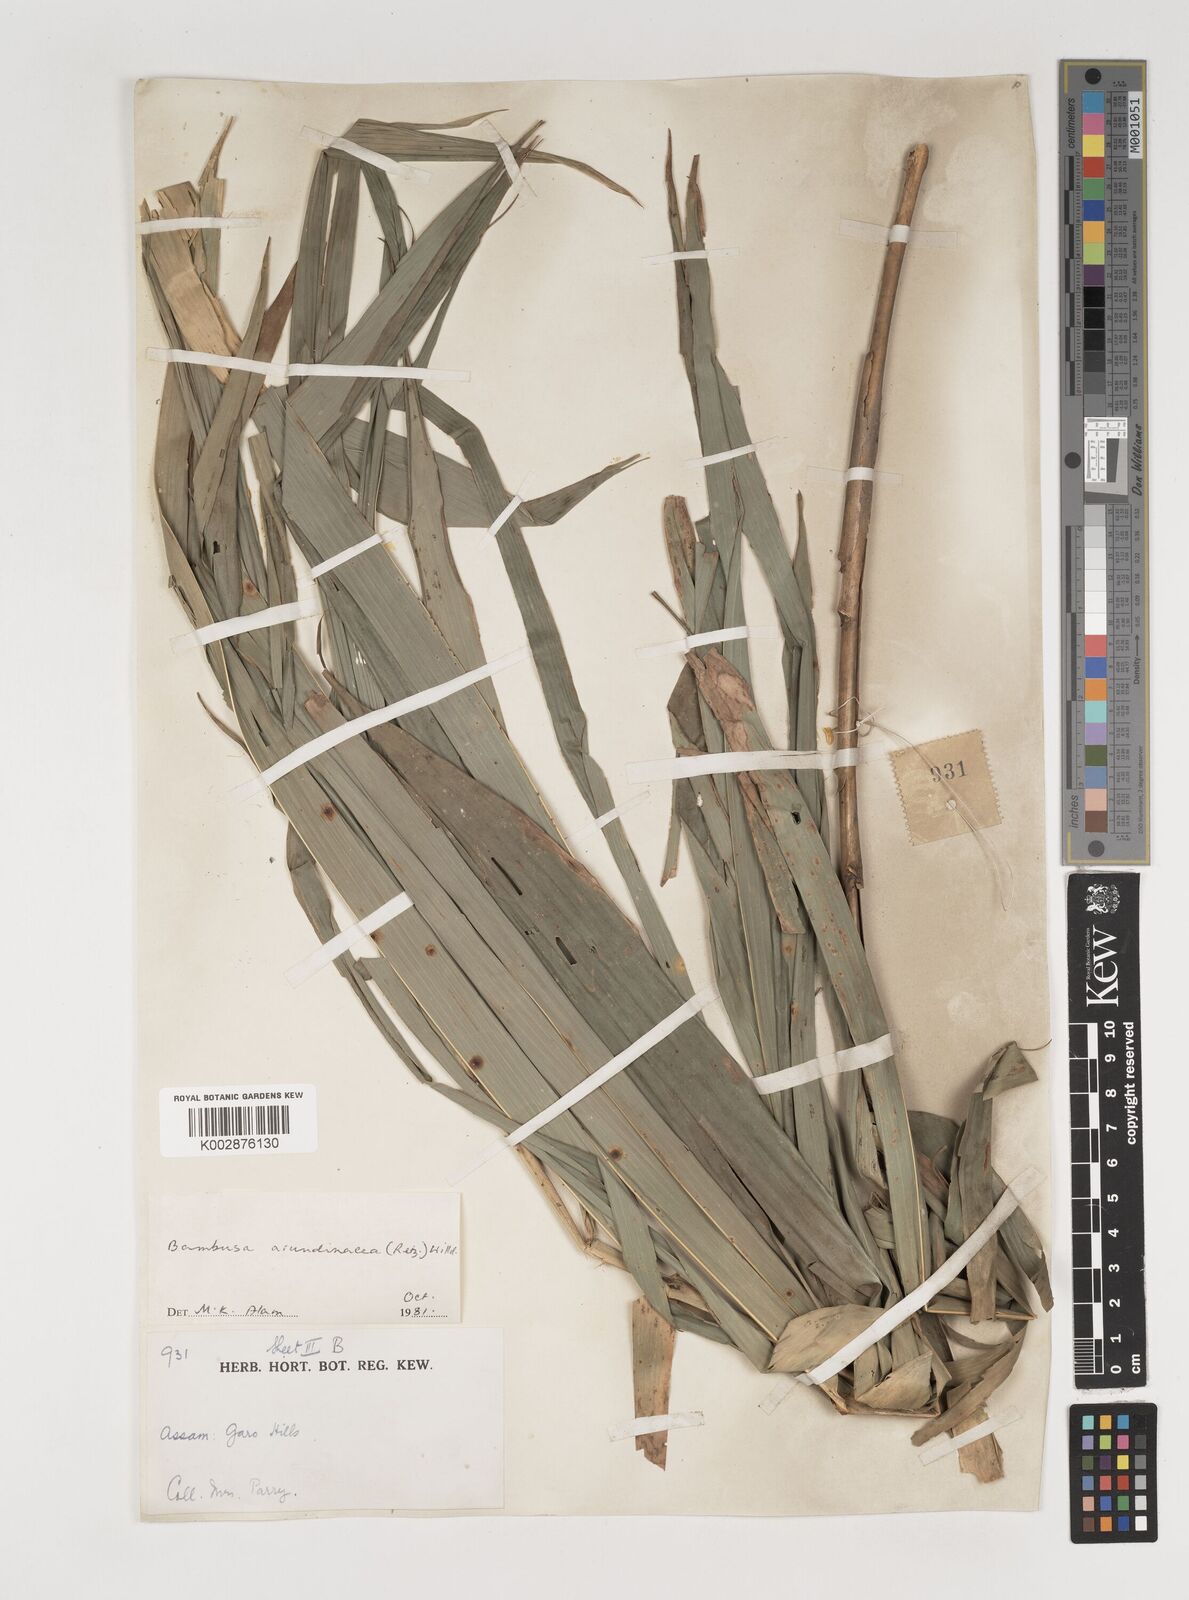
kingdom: Plantae
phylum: Tracheophyta
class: Liliopsida
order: Poales
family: Poaceae
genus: Bambusa
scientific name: Bambusa bambos
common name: Indian thorny bamboo
